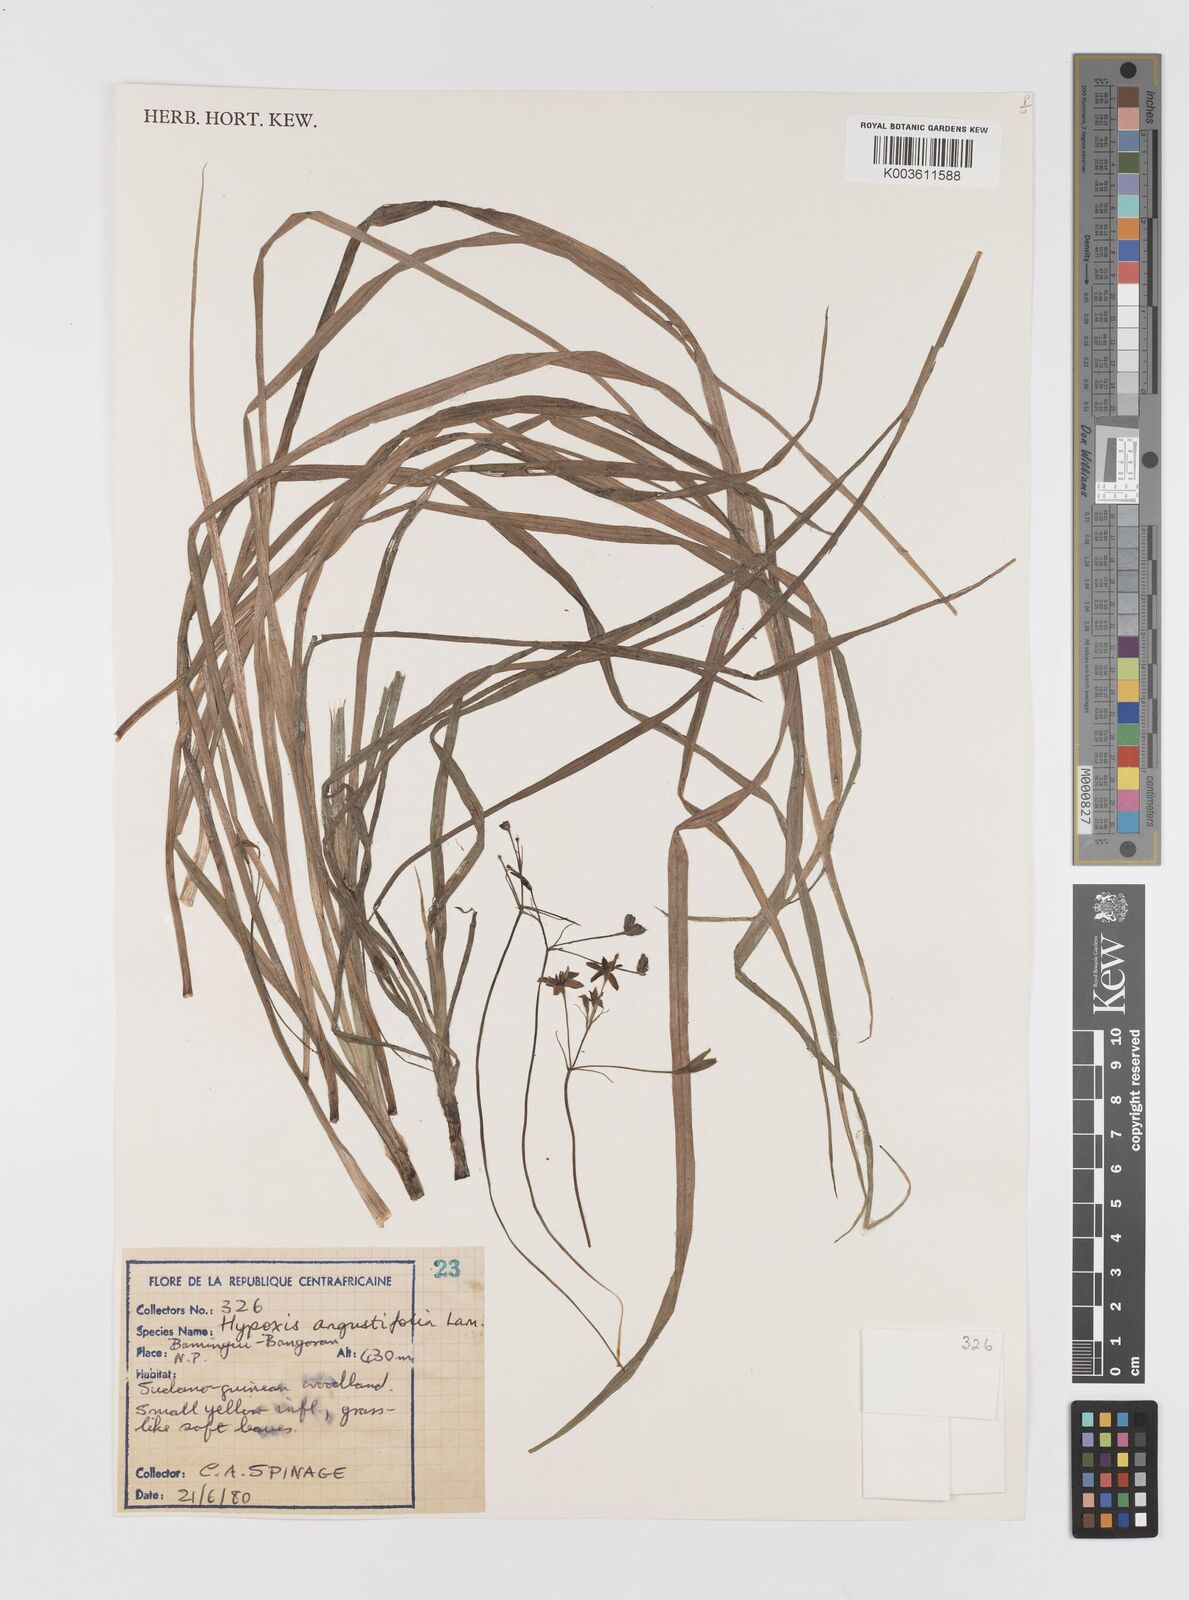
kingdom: Plantae
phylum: Tracheophyta
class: Liliopsida
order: Asparagales
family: Hypoxidaceae
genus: Hypoxis
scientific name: Hypoxis angustifolia
